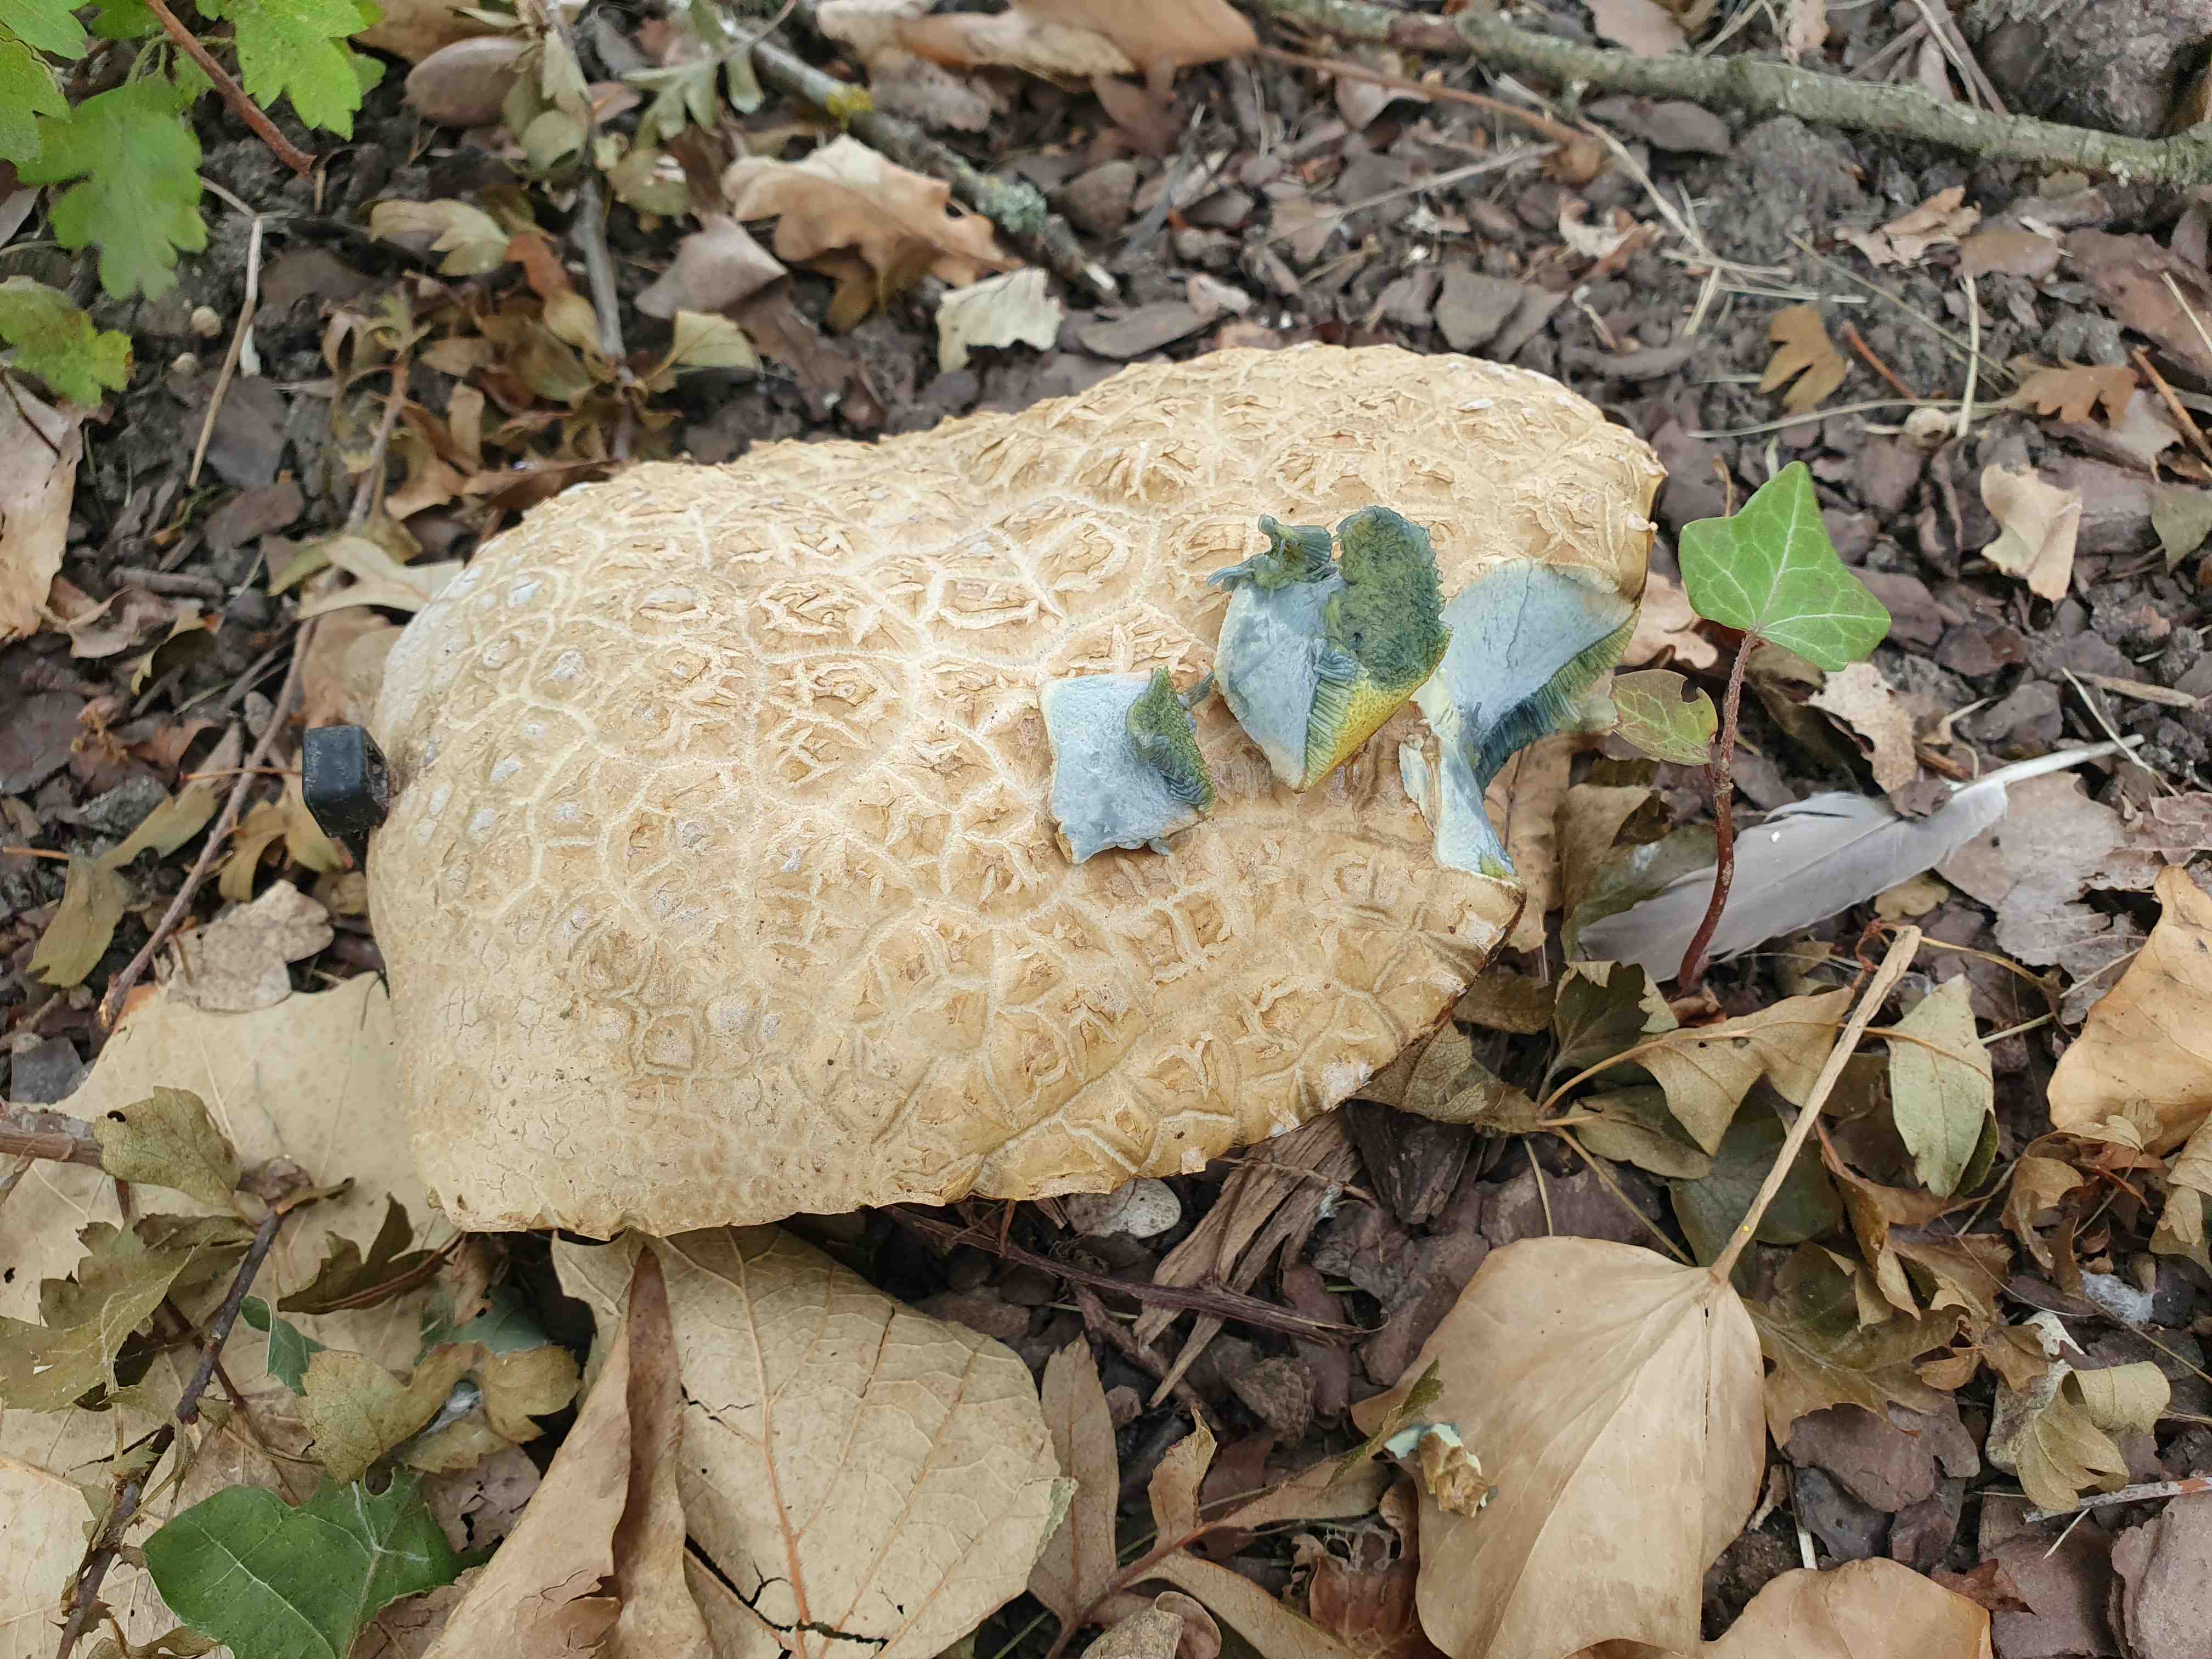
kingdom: Fungi
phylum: Basidiomycota
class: Agaricomycetes
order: Boletales
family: Boletaceae
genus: Caloboletus
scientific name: Caloboletus radicans
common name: rod-rørhat
